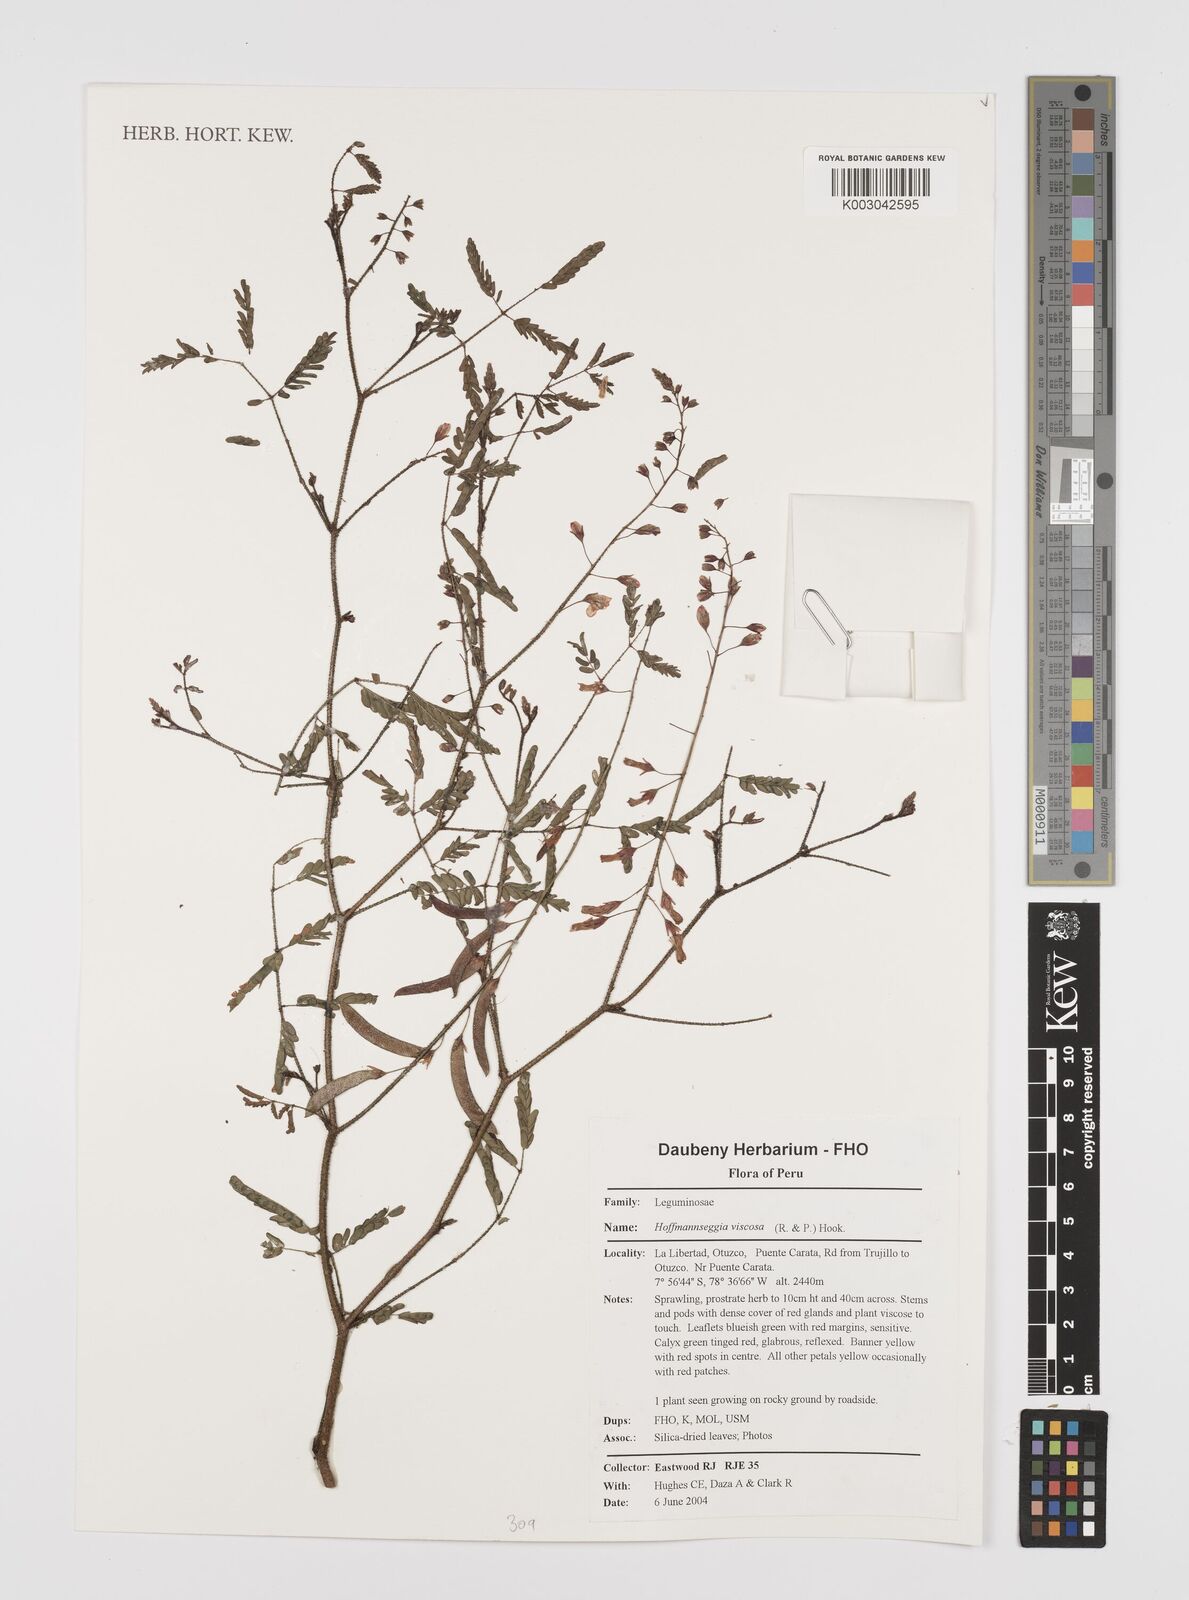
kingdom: Plantae
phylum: Tracheophyta
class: Magnoliopsida
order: Fabales
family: Fabaceae
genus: Hoffmannseggia
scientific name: Hoffmannseggia viscosa
